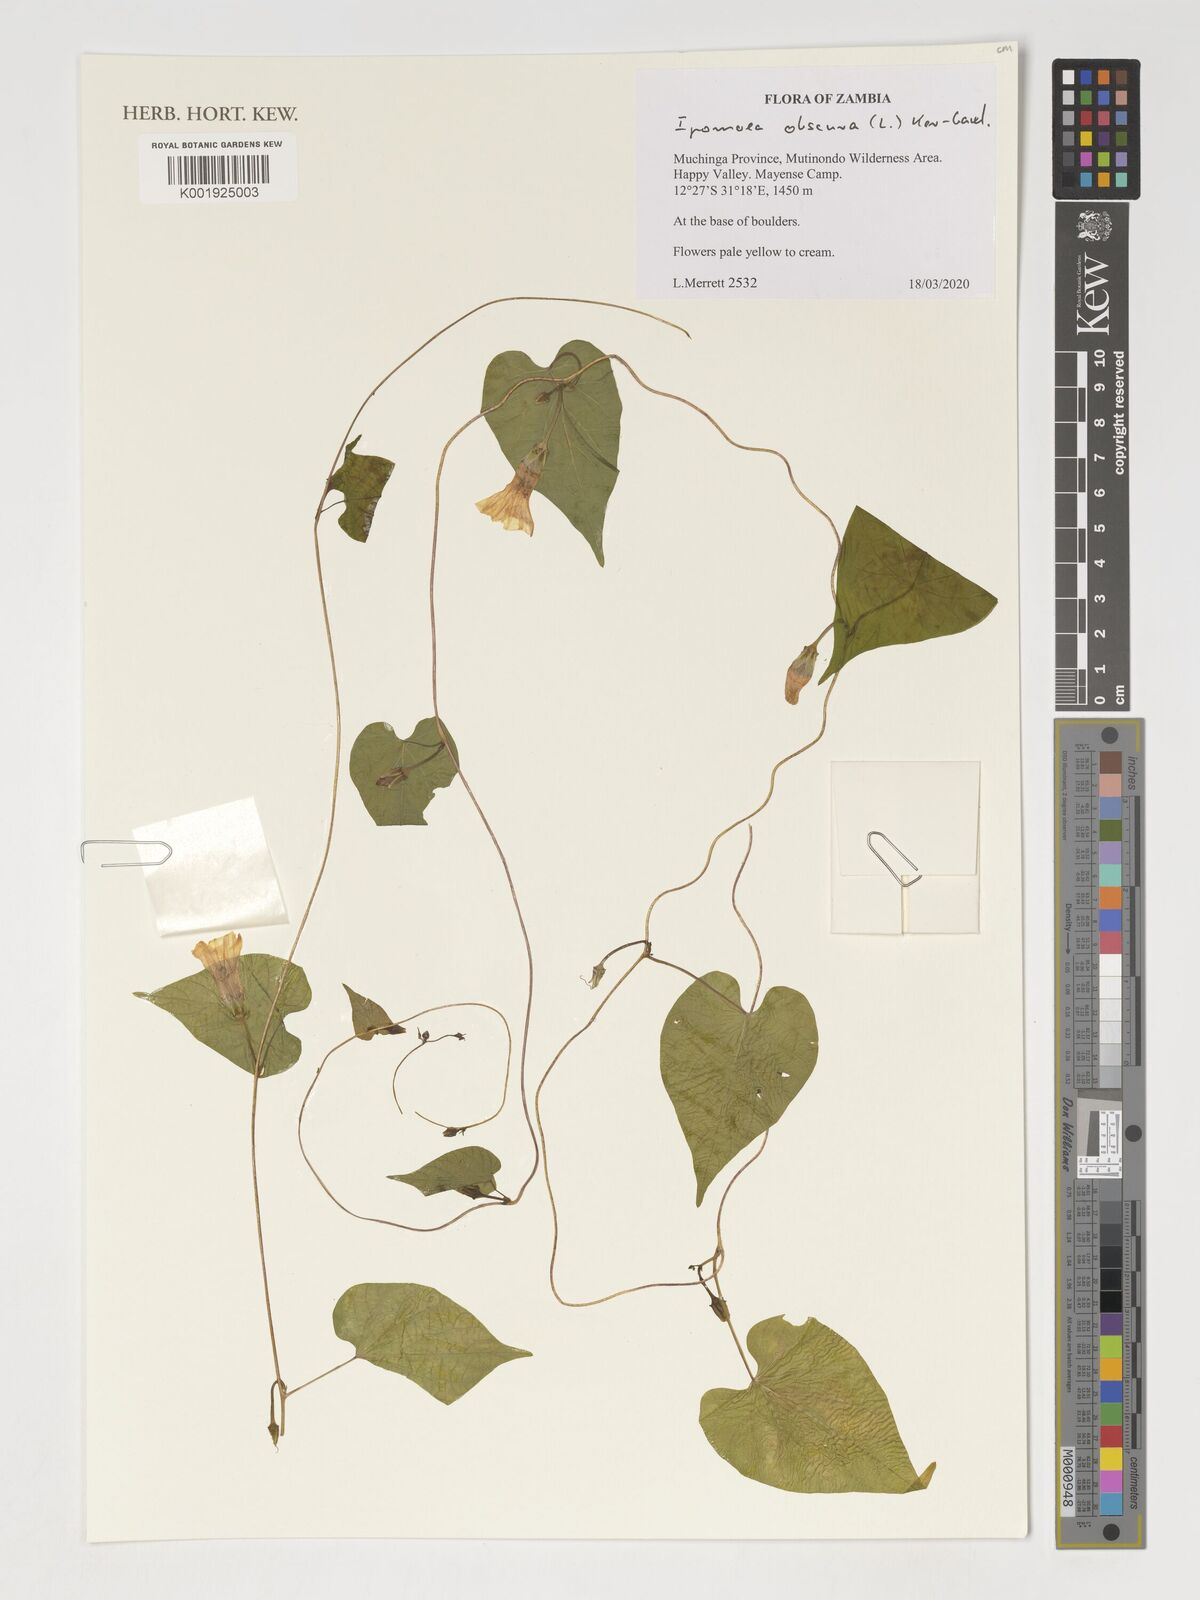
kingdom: Plantae
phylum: Tracheophyta
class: Magnoliopsida
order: Solanales
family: Convolvulaceae
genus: Ipomoea
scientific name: Ipomoea obscura
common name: Obscure morning-glory
